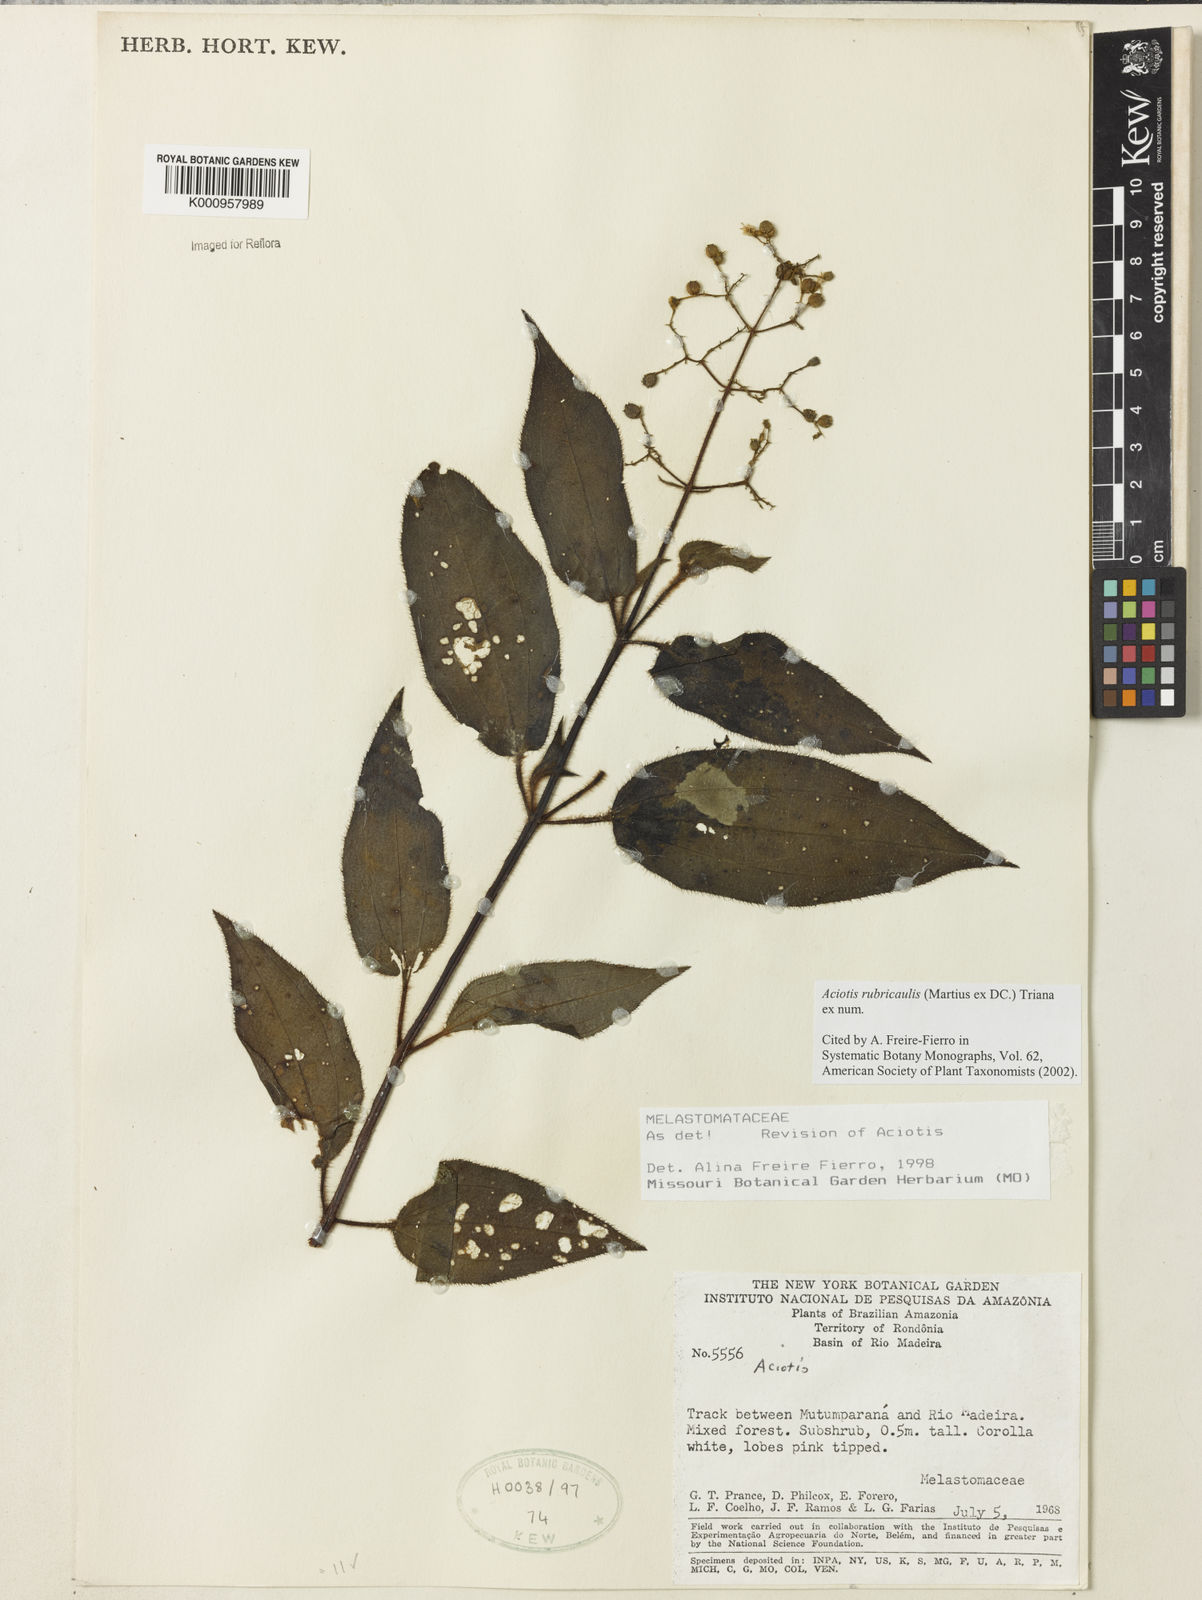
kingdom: Plantae
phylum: Tracheophyta
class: Magnoliopsida
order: Myrtales
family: Melastomataceae
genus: Aciotis
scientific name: Aciotis rubricaulis
